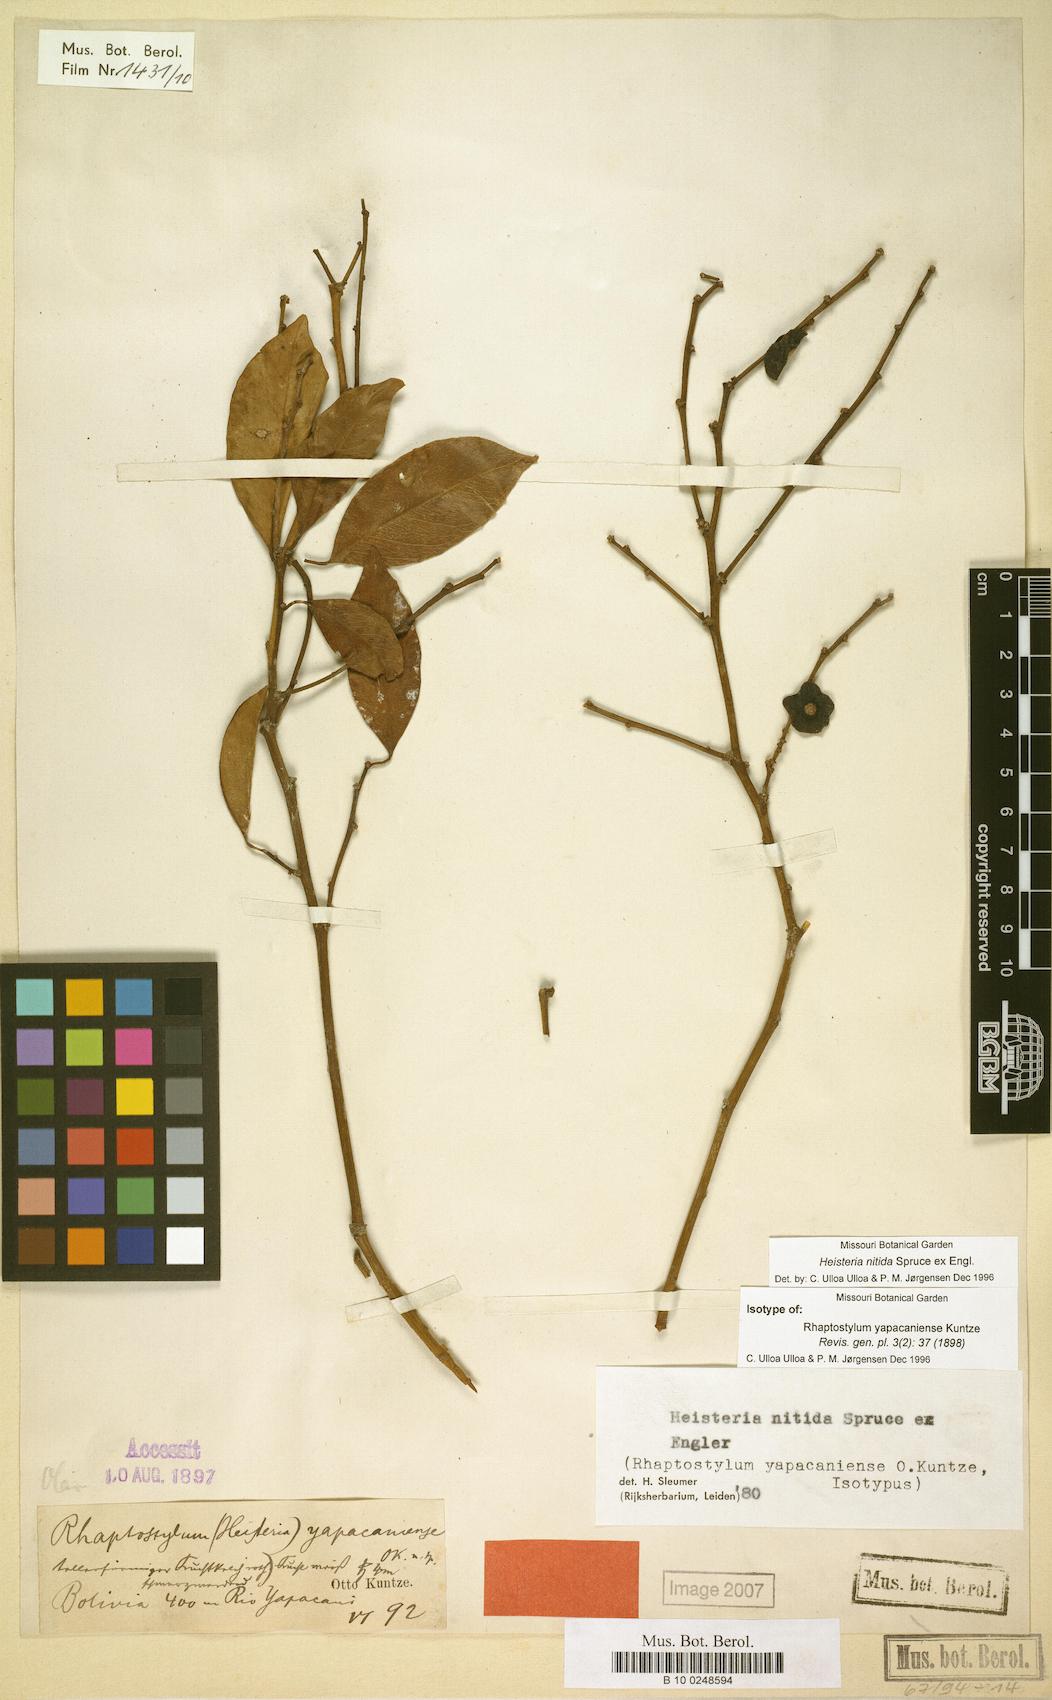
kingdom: Plantae
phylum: Tracheophyta
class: Magnoliopsida
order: Santalales
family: Erythropalaceae
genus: Heisteria
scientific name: Heisteria nitida
